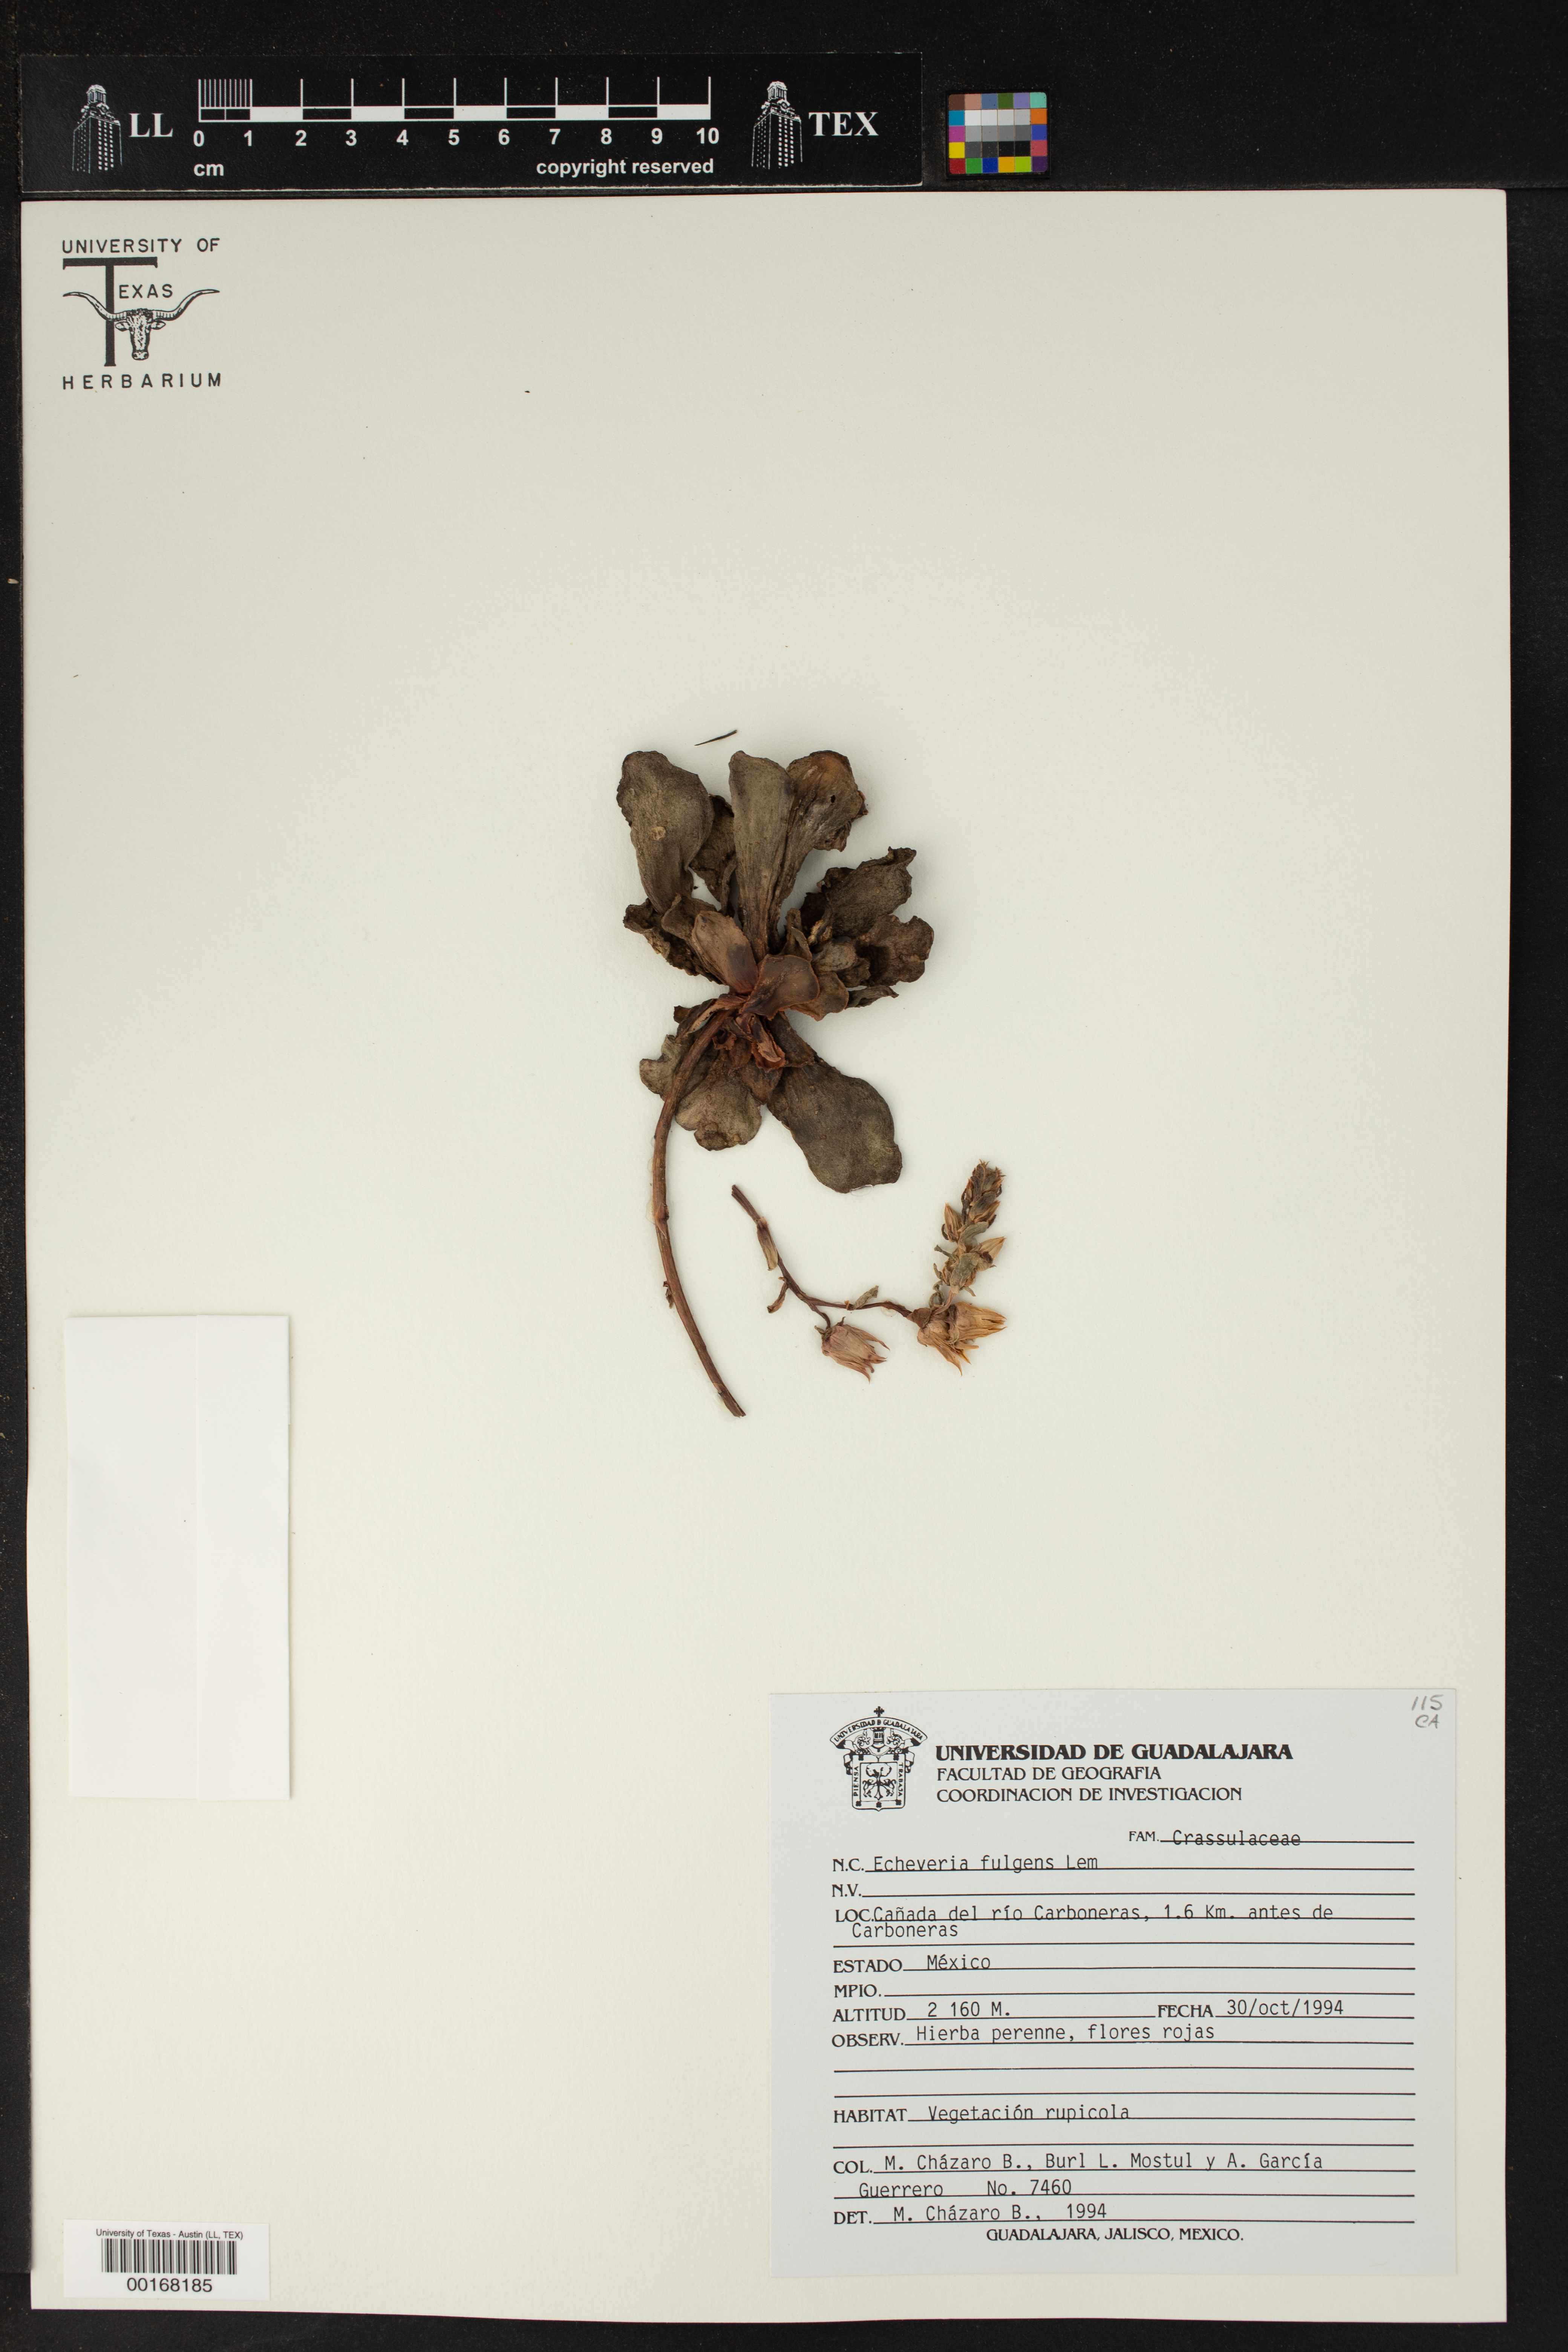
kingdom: Plantae
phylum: Tracheophyta
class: Magnoliopsida
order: Saxifragales
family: Crassulaceae
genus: Echeveria
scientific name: Echeveria fulgens
